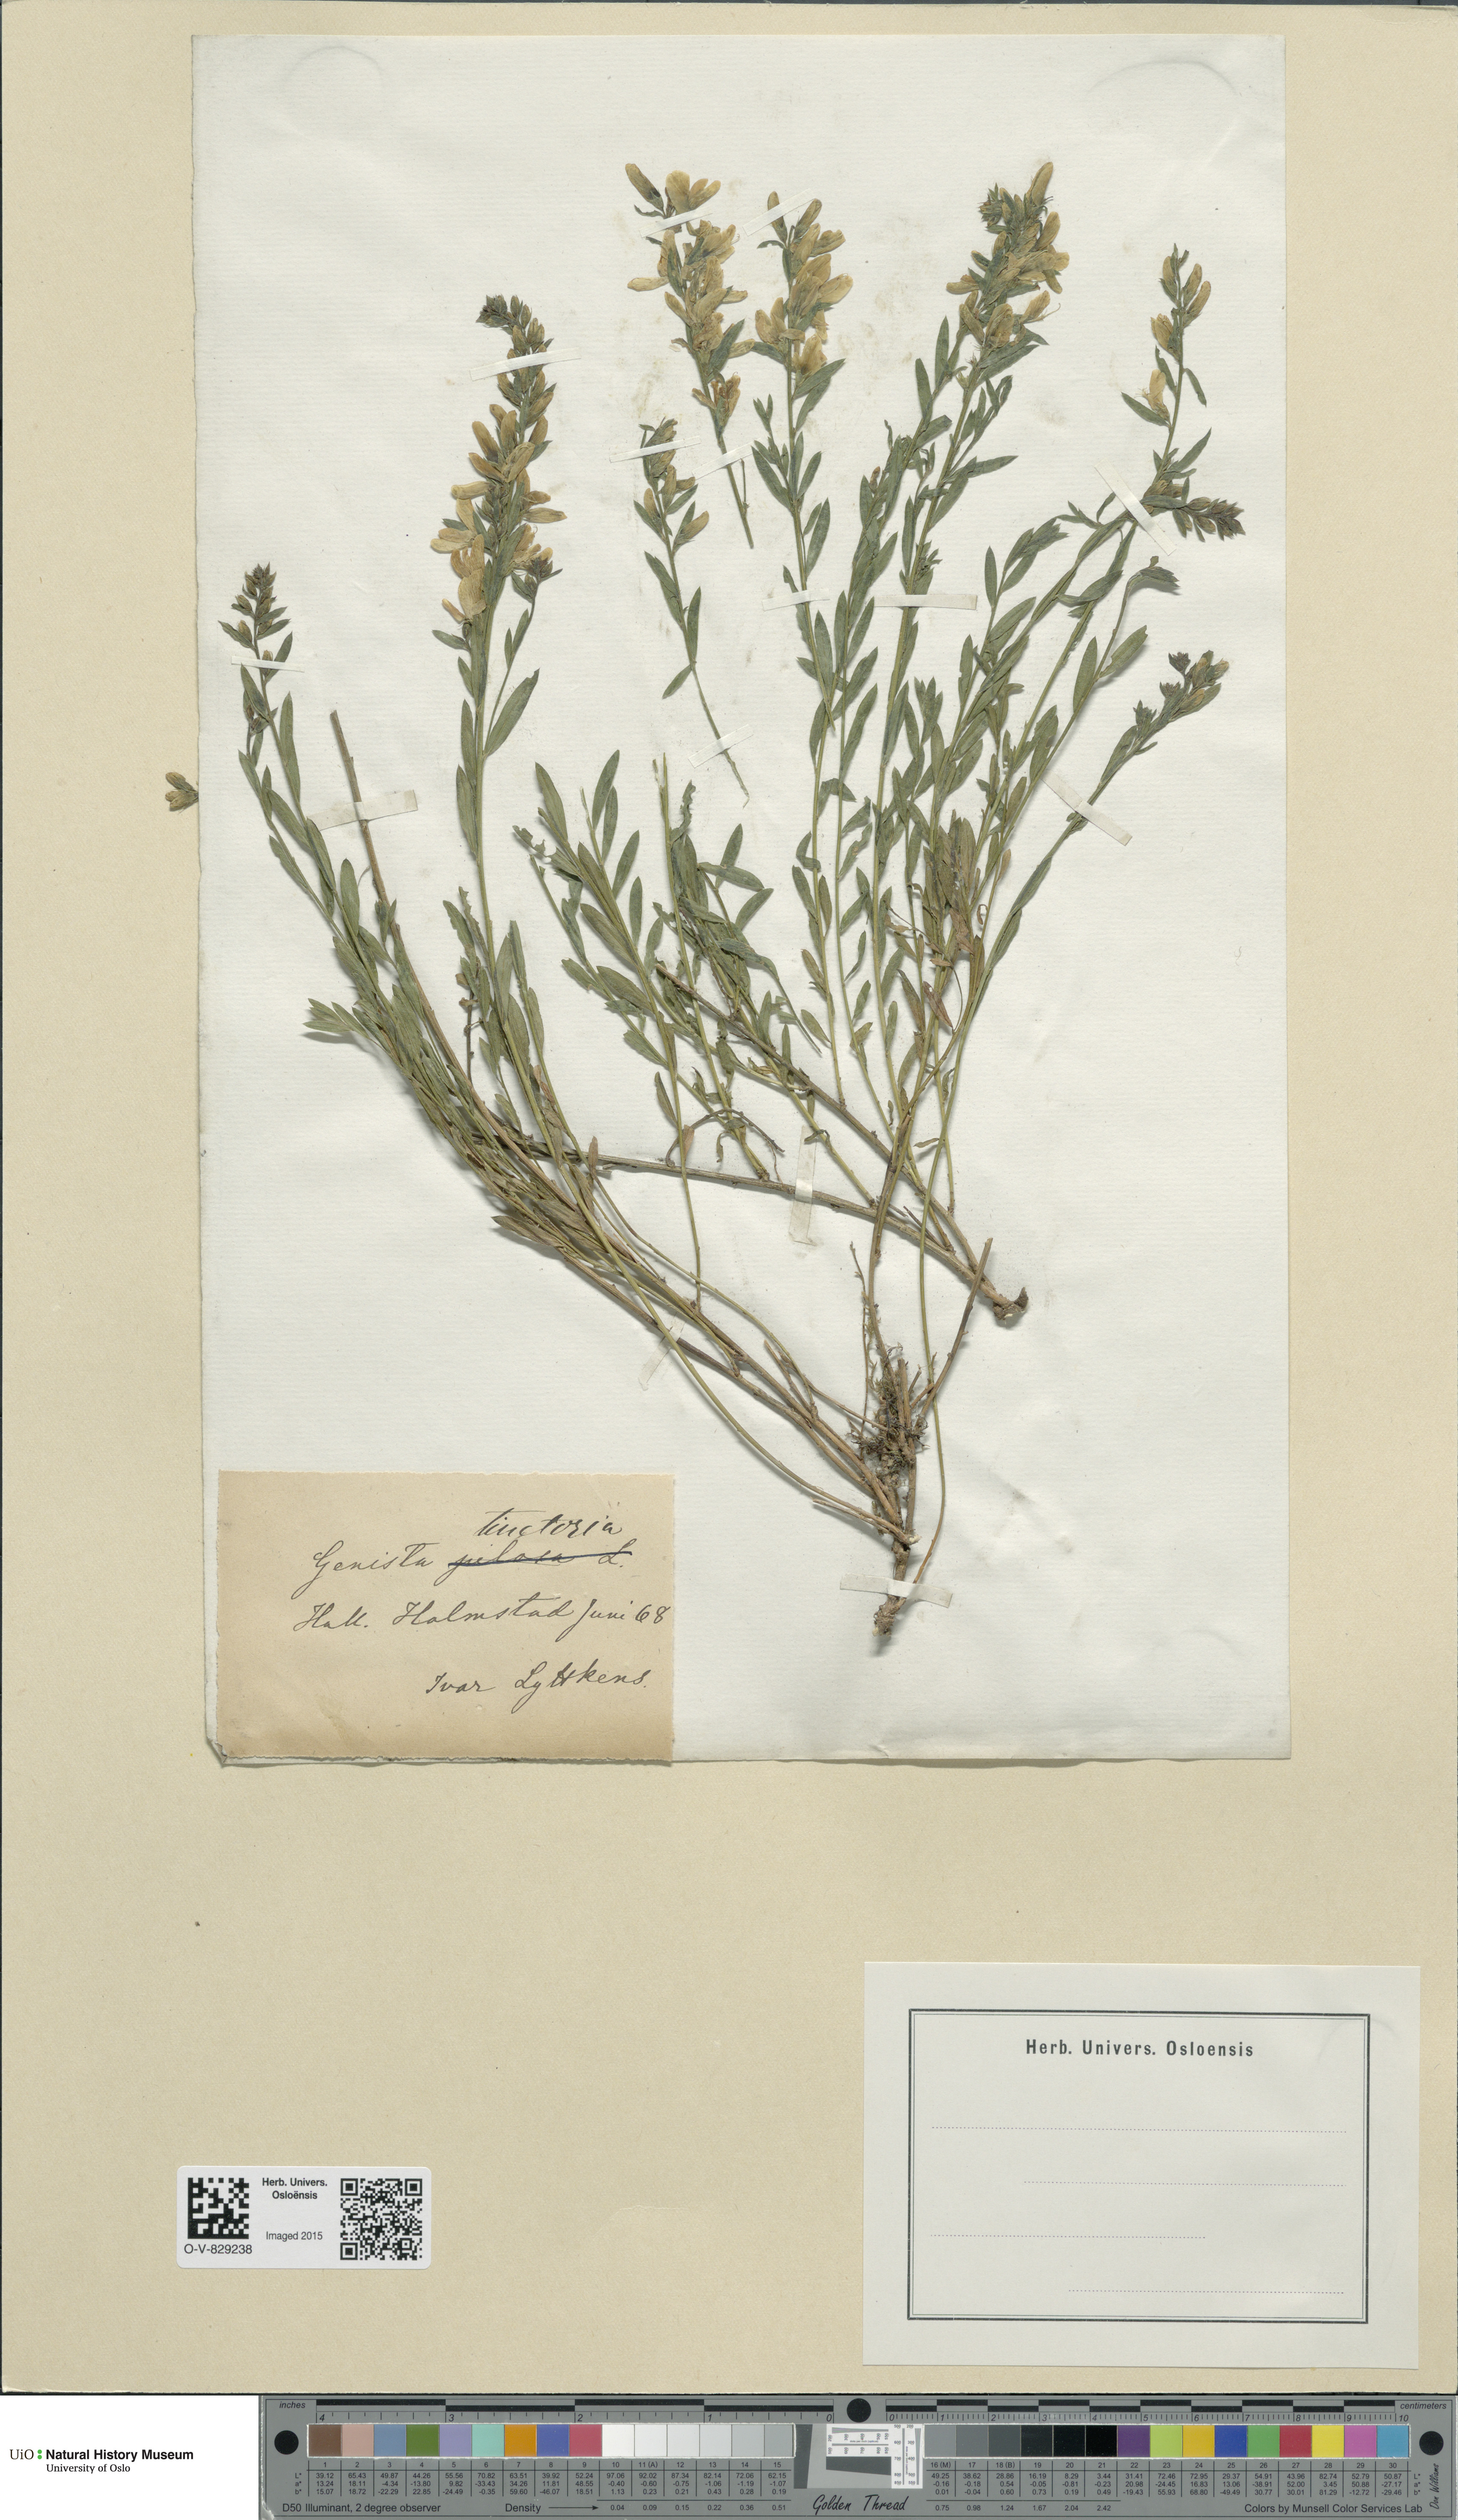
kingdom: Plantae
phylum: Tracheophyta
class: Magnoliopsida
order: Fabales
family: Fabaceae
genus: Genista
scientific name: Genista tinctoria
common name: Dyer's greenweed
